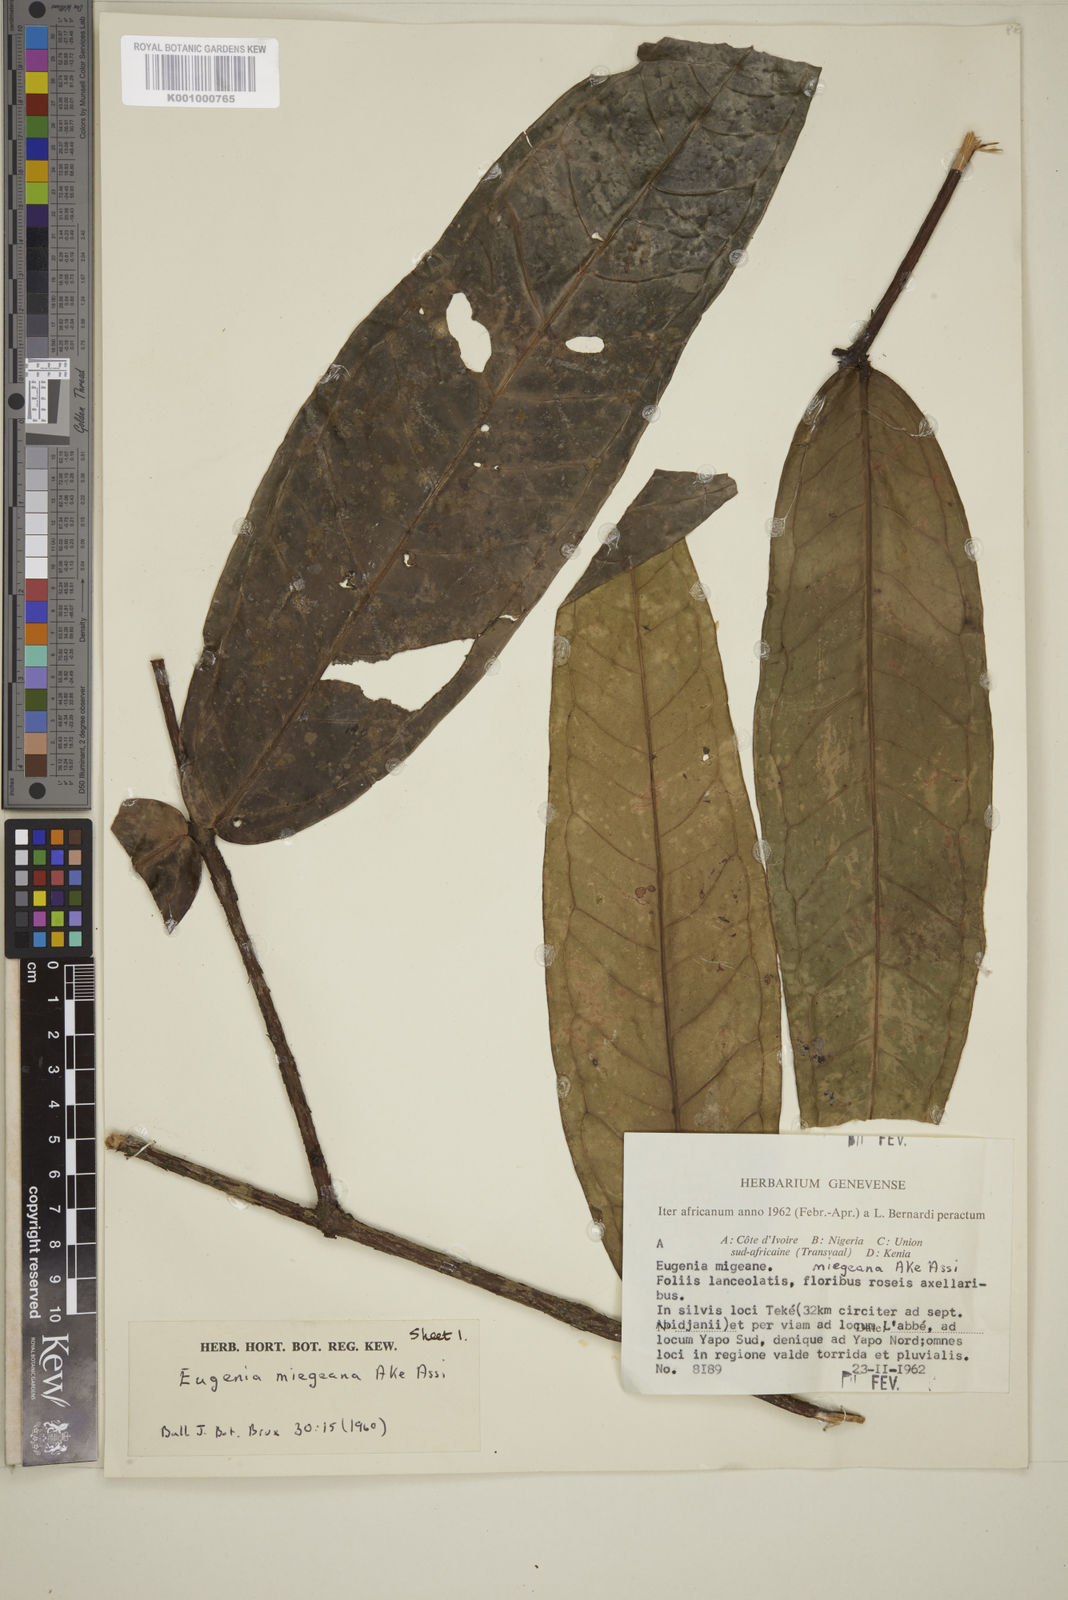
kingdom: Plantae
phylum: Tracheophyta
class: Magnoliopsida
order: Myrtales
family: Myrtaceae
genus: Eugenia
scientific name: Eugenia
